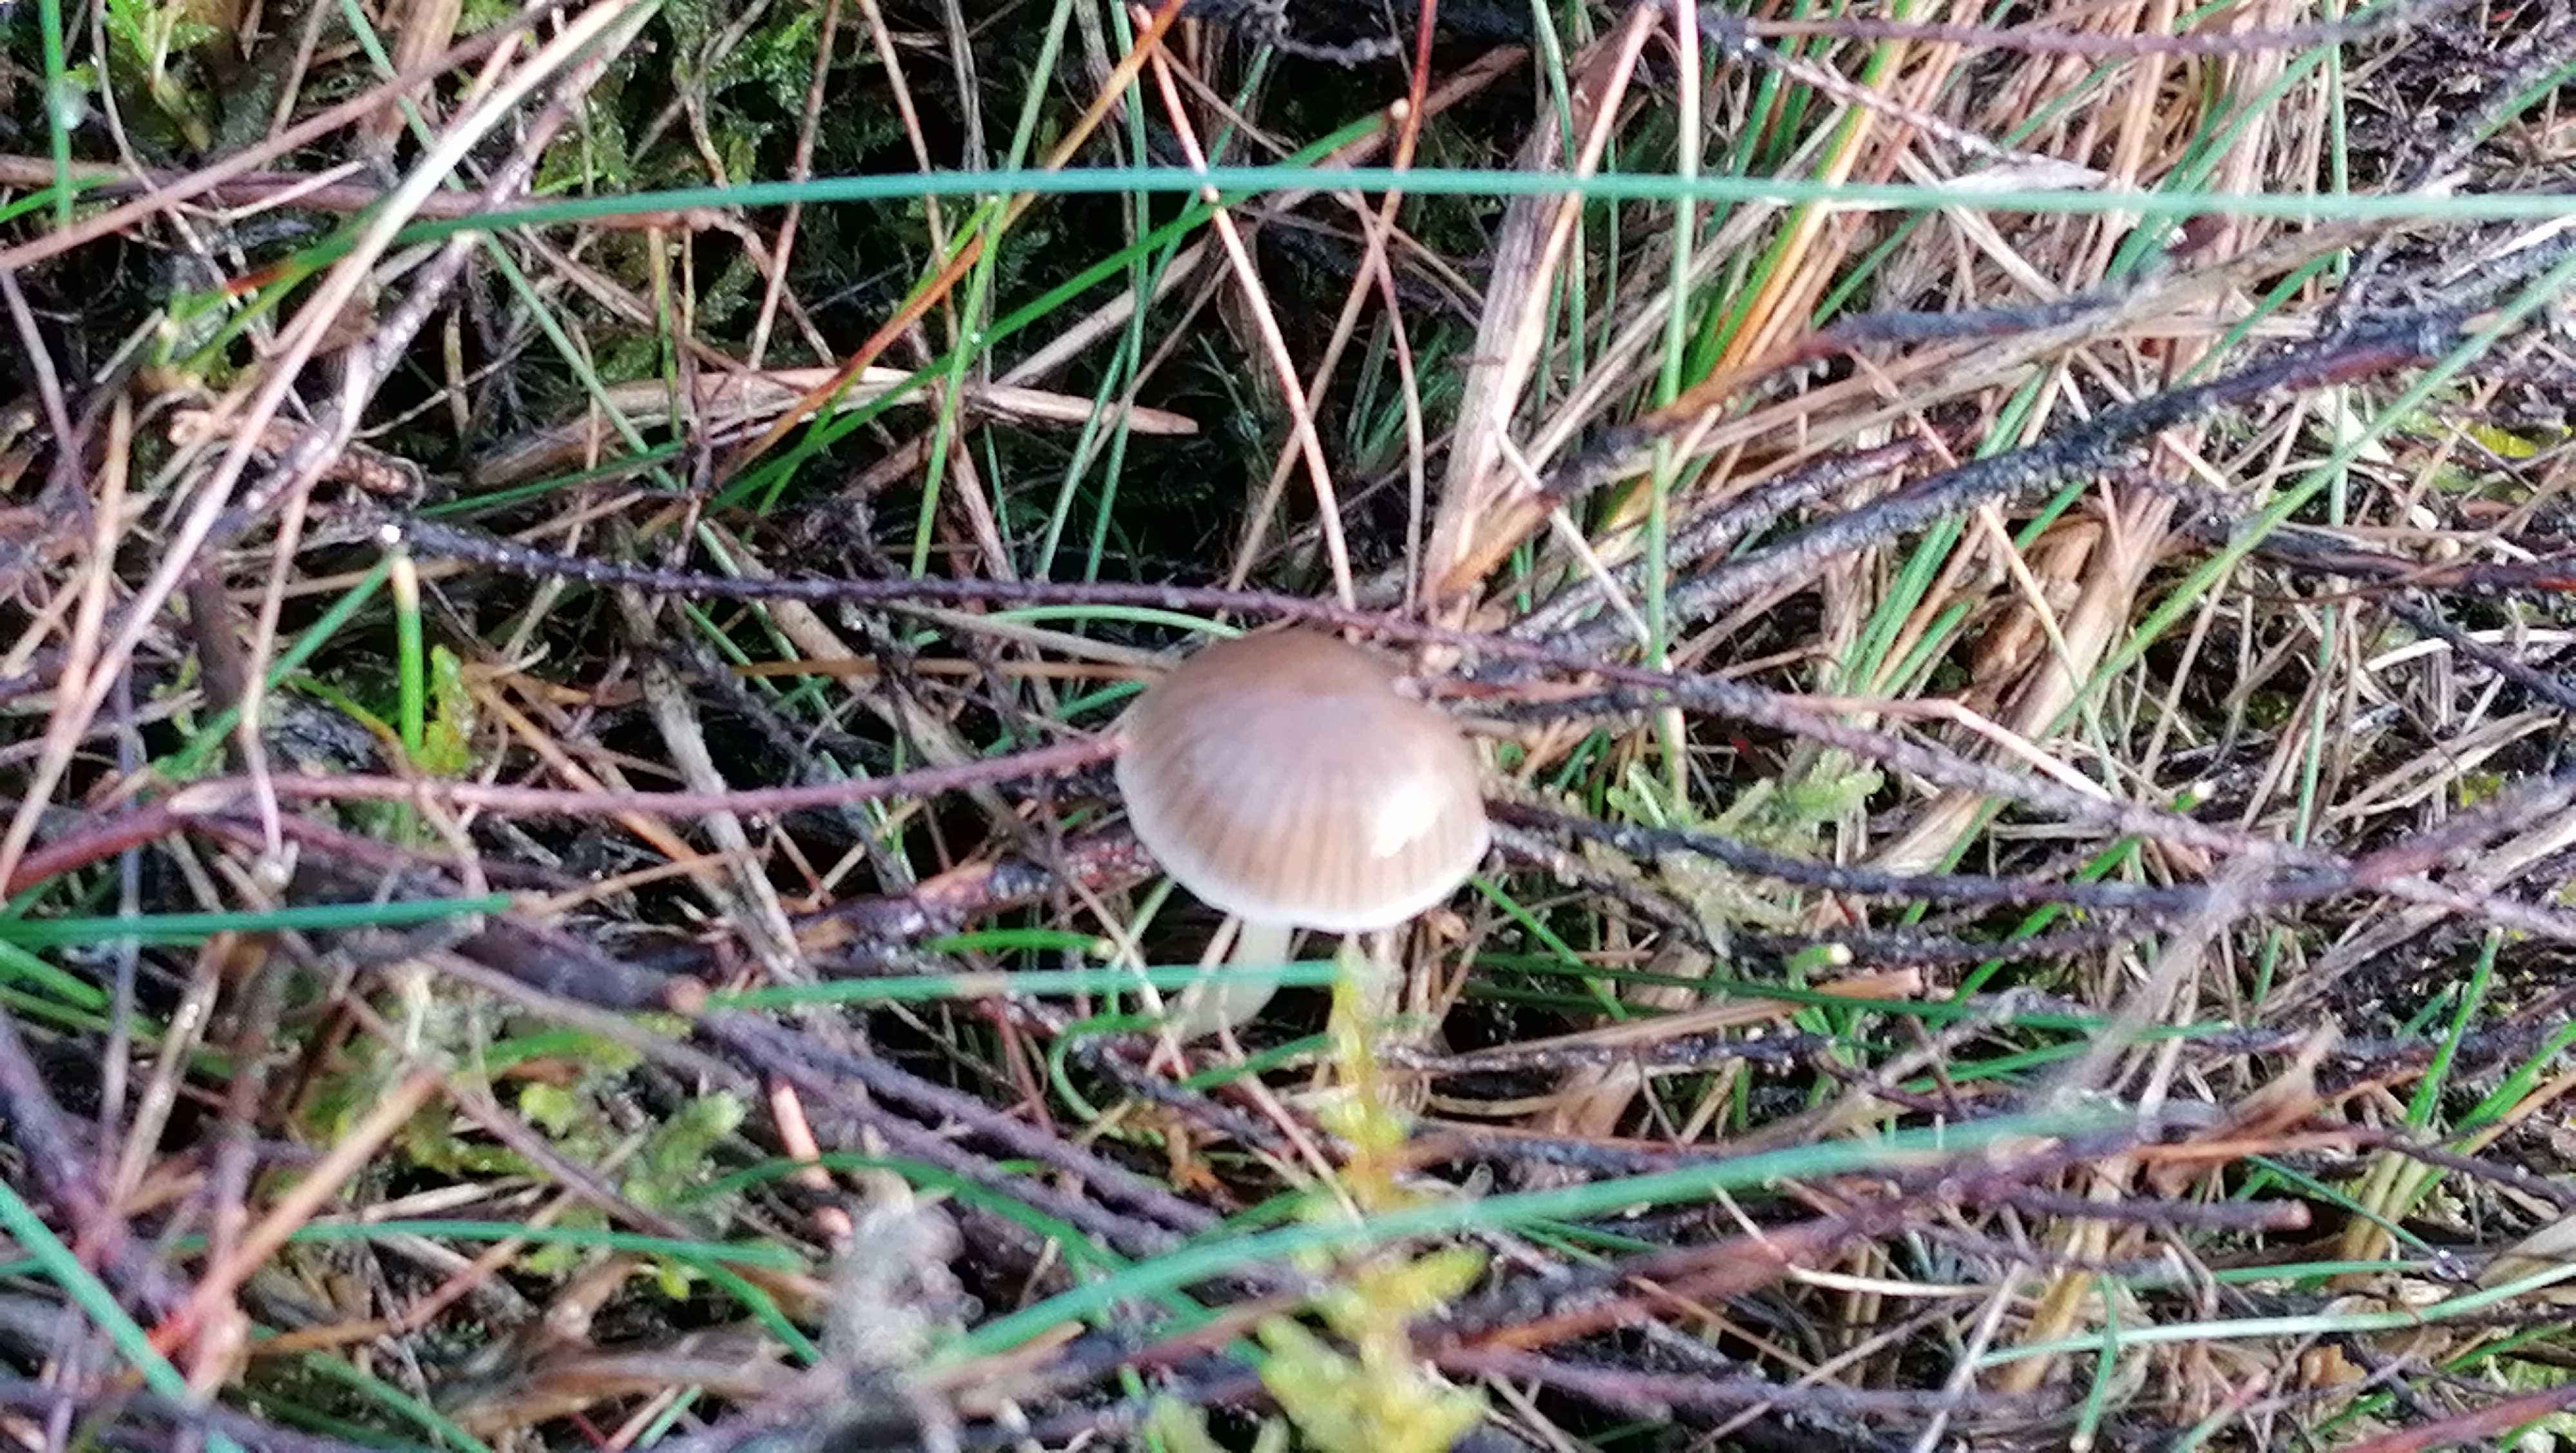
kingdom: Fungi
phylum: Basidiomycota
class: Agaricomycetes
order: Agaricales
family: Mycenaceae
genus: Mycena
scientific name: Mycena epipterygia
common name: gulstokket huesvamp
